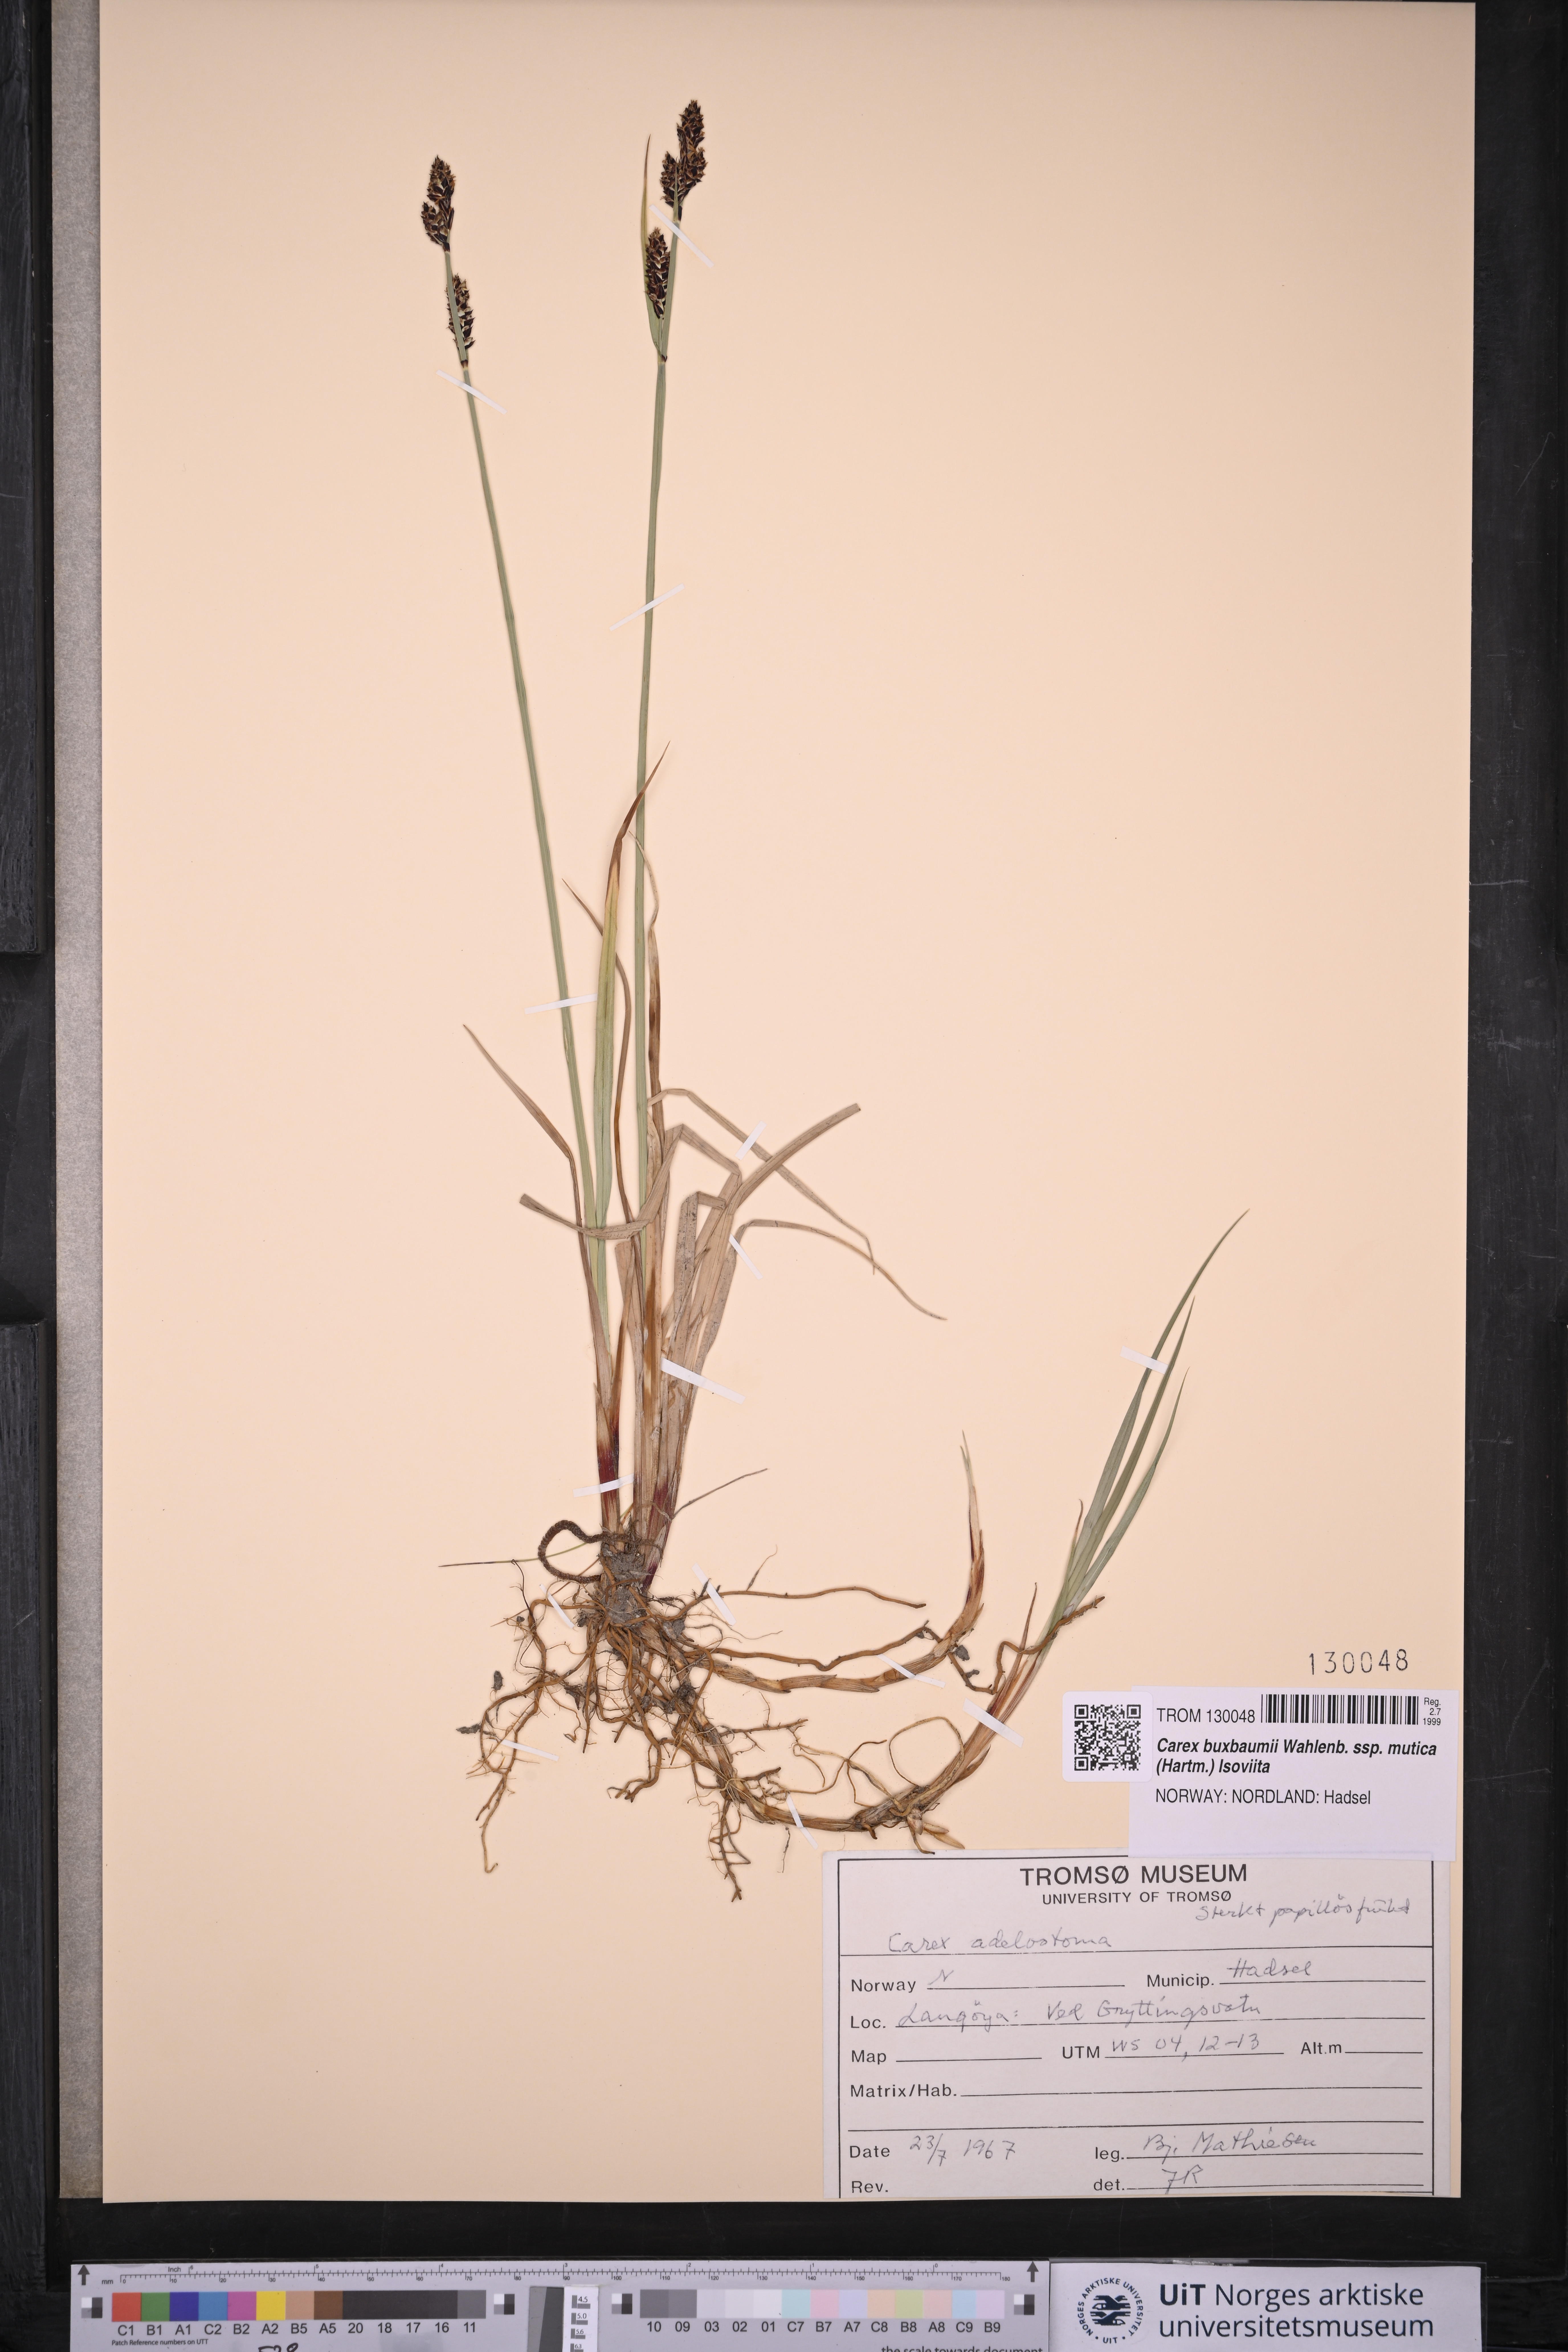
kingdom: Plantae
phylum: Tracheophyta
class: Liliopsida
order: Poales
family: Cyperaceae
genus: Carex
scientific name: Carex adelostoma
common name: Circumpolar sedge
